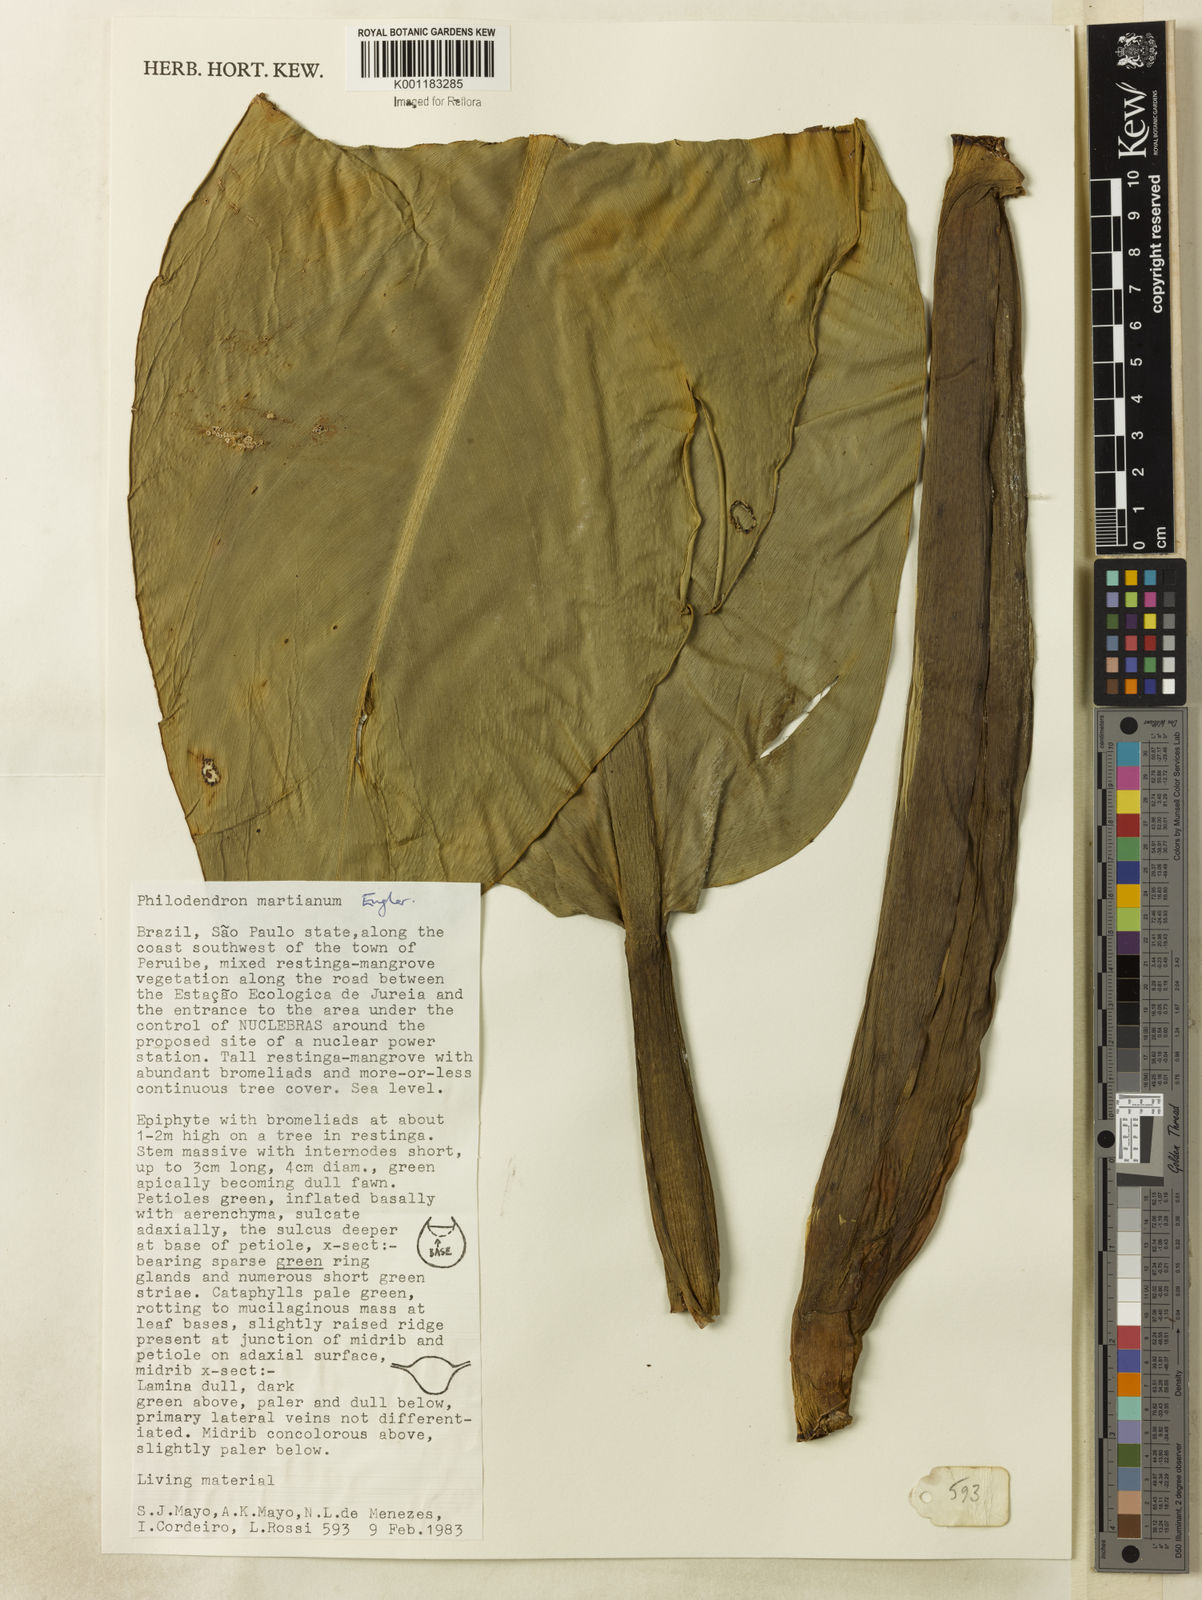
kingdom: Plantae
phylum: Tracheophyta
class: Liliopsida
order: Alismatales
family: Araceae
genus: Philodendron
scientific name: Philodendron martianum
